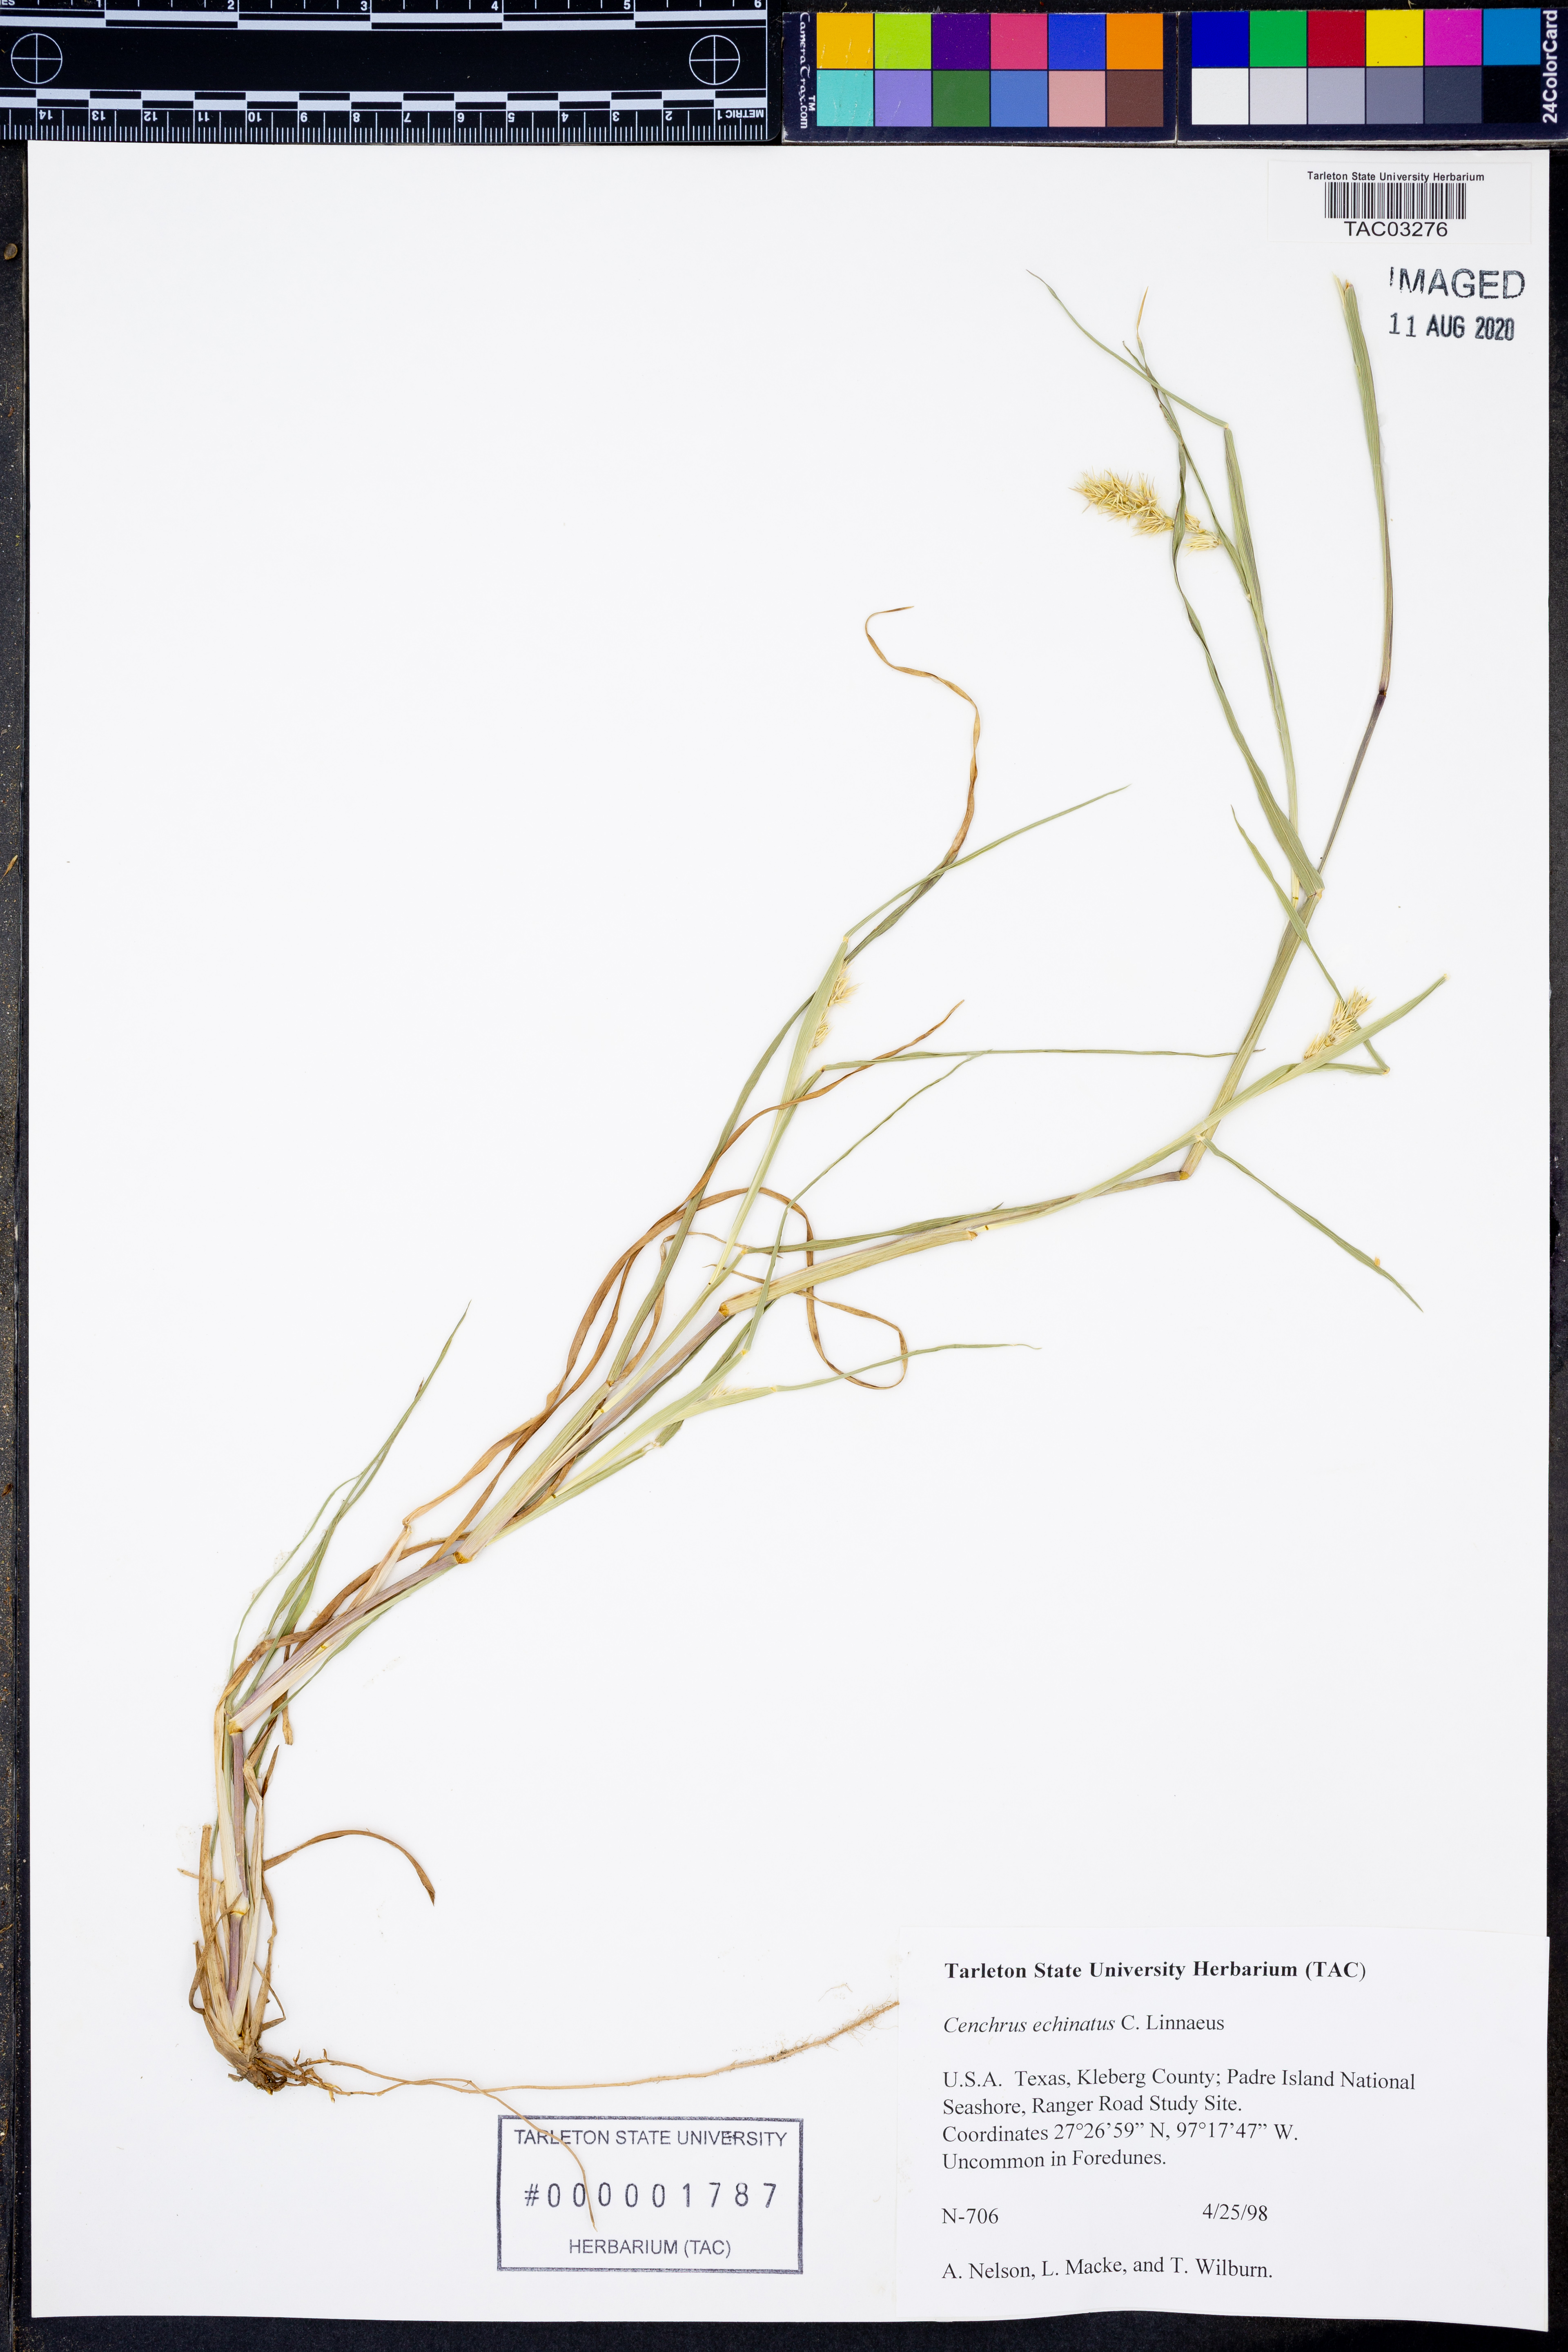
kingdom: Plantae
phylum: Tracheophyta
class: Liliopsida
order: Poales
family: Poaceae
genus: Cenchrus
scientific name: Cenchrus echinatus
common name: Southern sandbur
